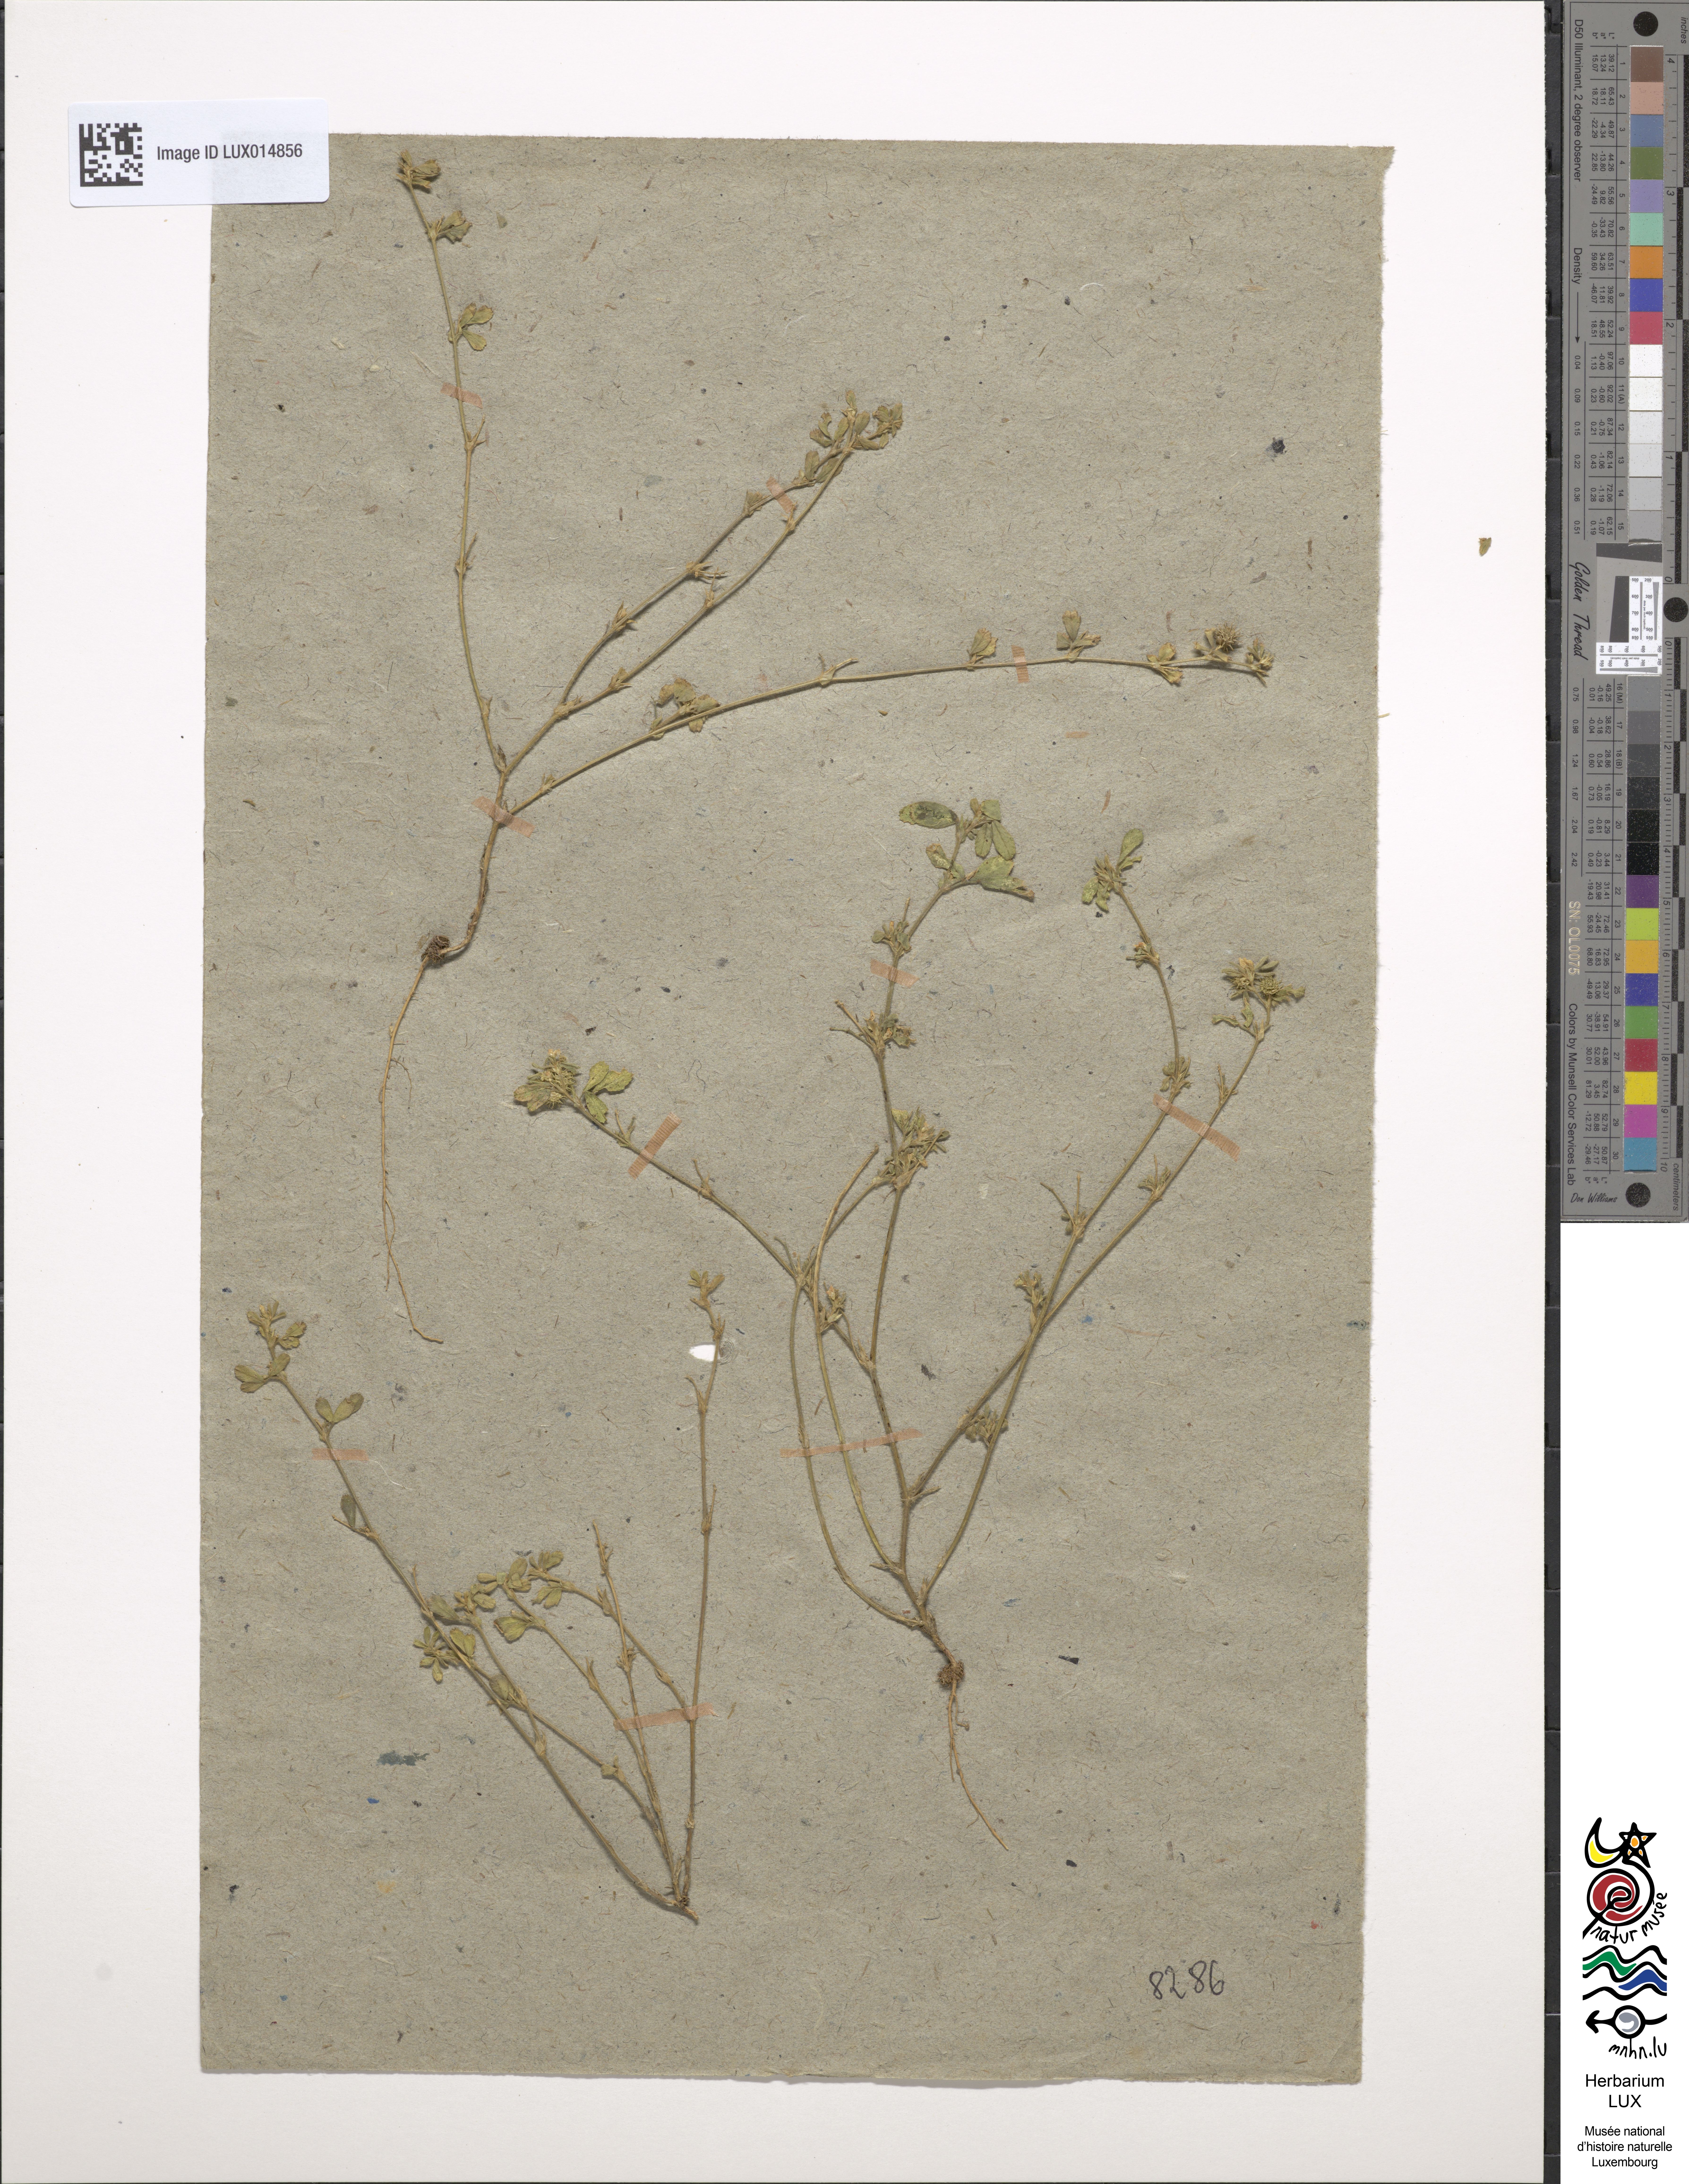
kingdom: Plantae
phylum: Tracheophyta
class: Magnoliopsida
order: Fabales
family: Fabaceae
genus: Medicago
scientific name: Medicago minima
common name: Little bur-clover
